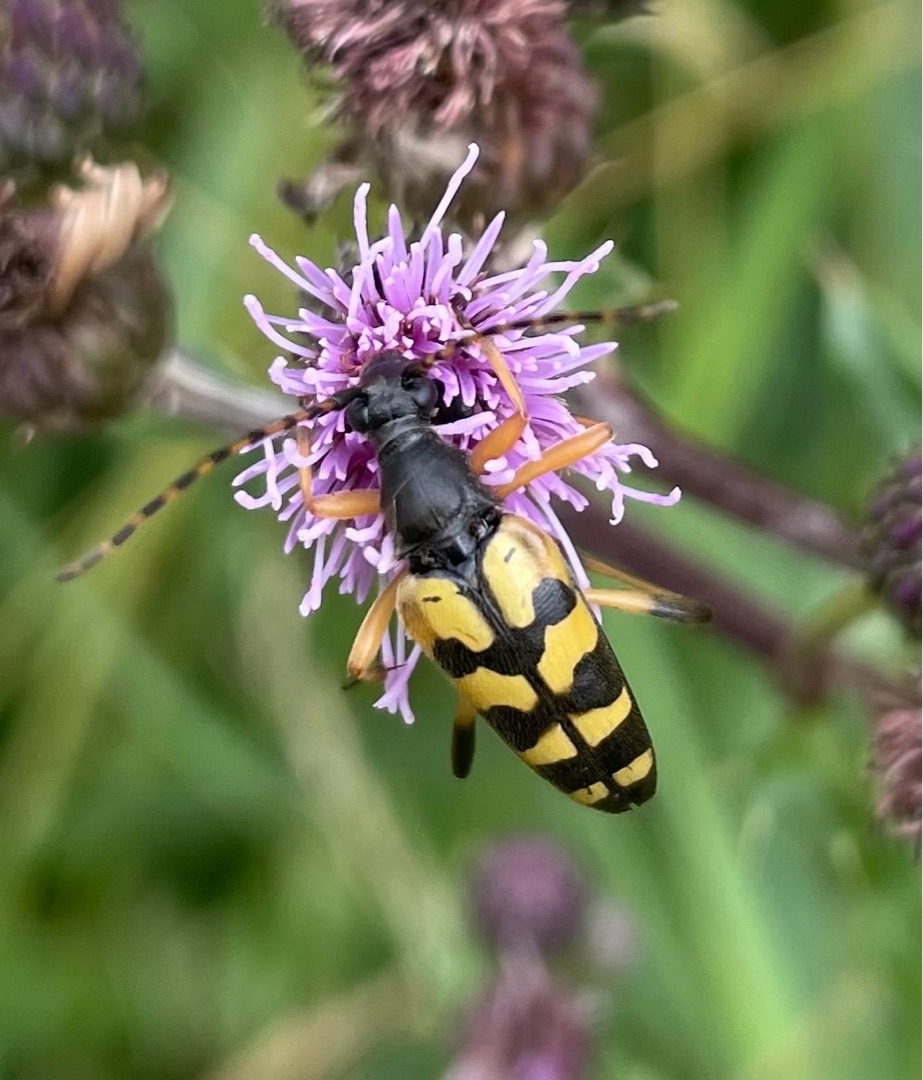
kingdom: Animalia
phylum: Arthropoda
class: Insecta
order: Coleoptera
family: Cerambycidae
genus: Rutpela
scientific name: Rutpela maculata
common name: Sydlig blomsterbuk
